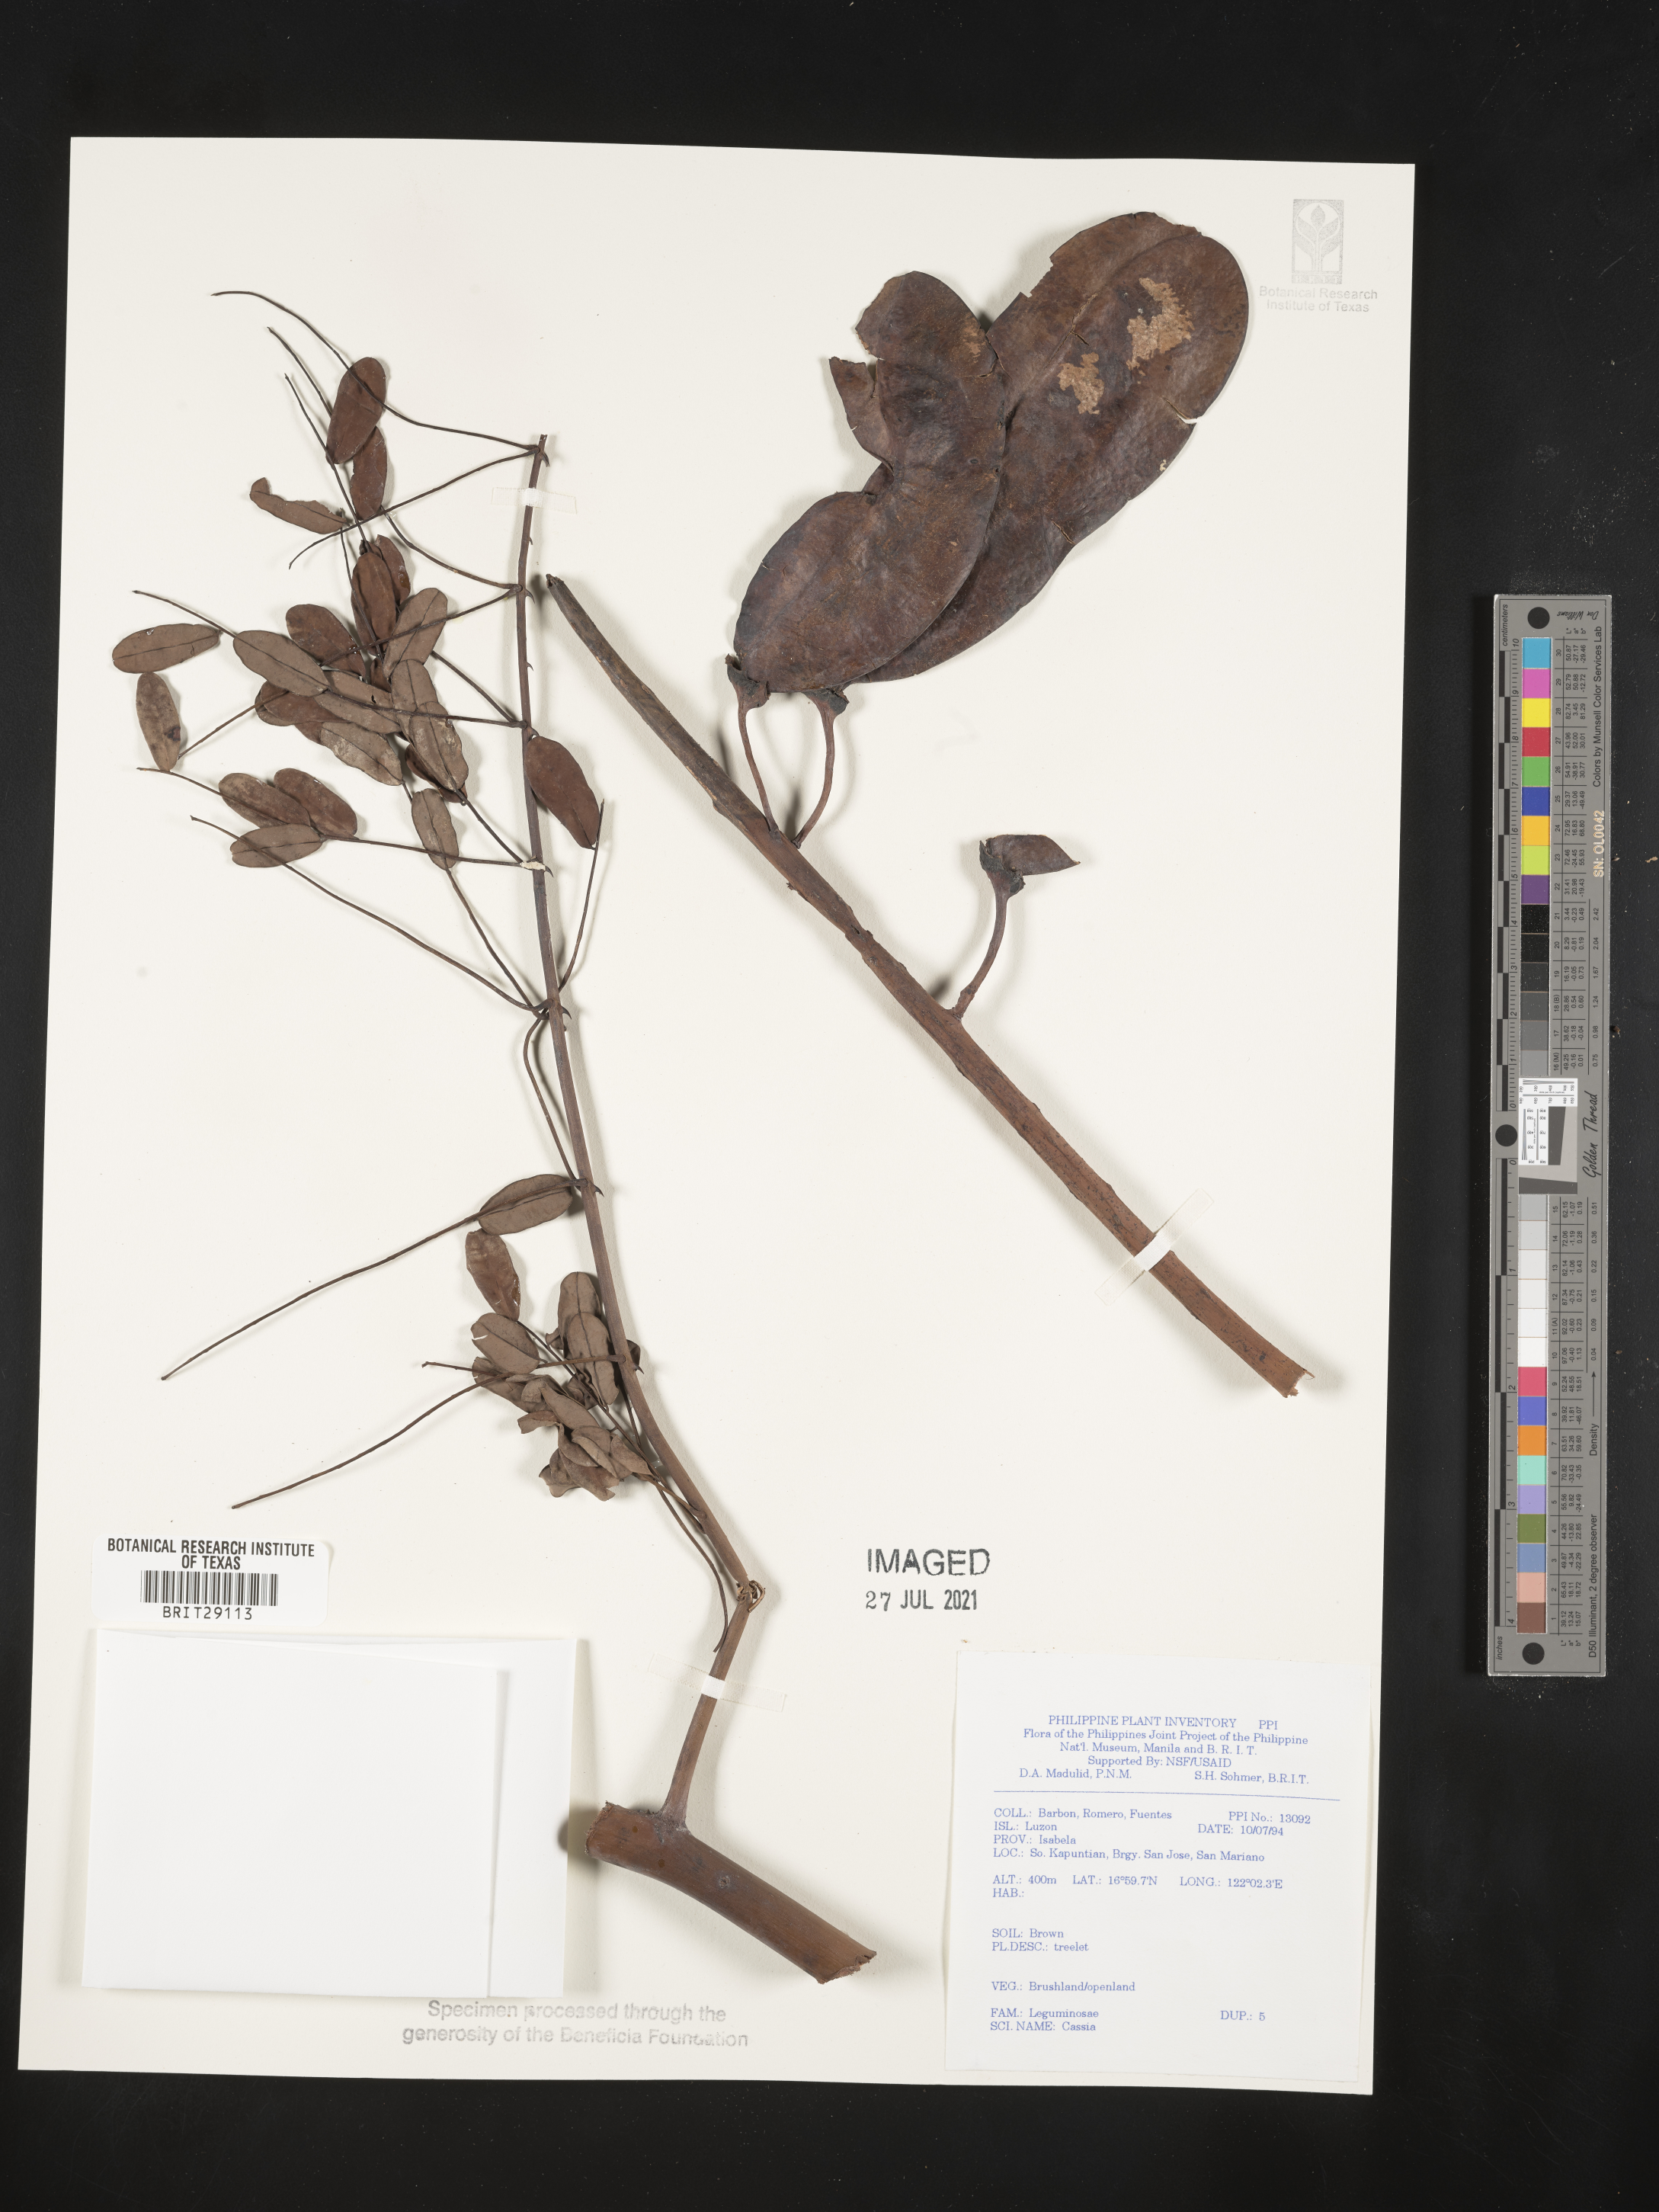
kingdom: Plantae
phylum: Tracheophyta
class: Magnoliopsida
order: Fabales
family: Fabaceae
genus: Cassia
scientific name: Cassia
